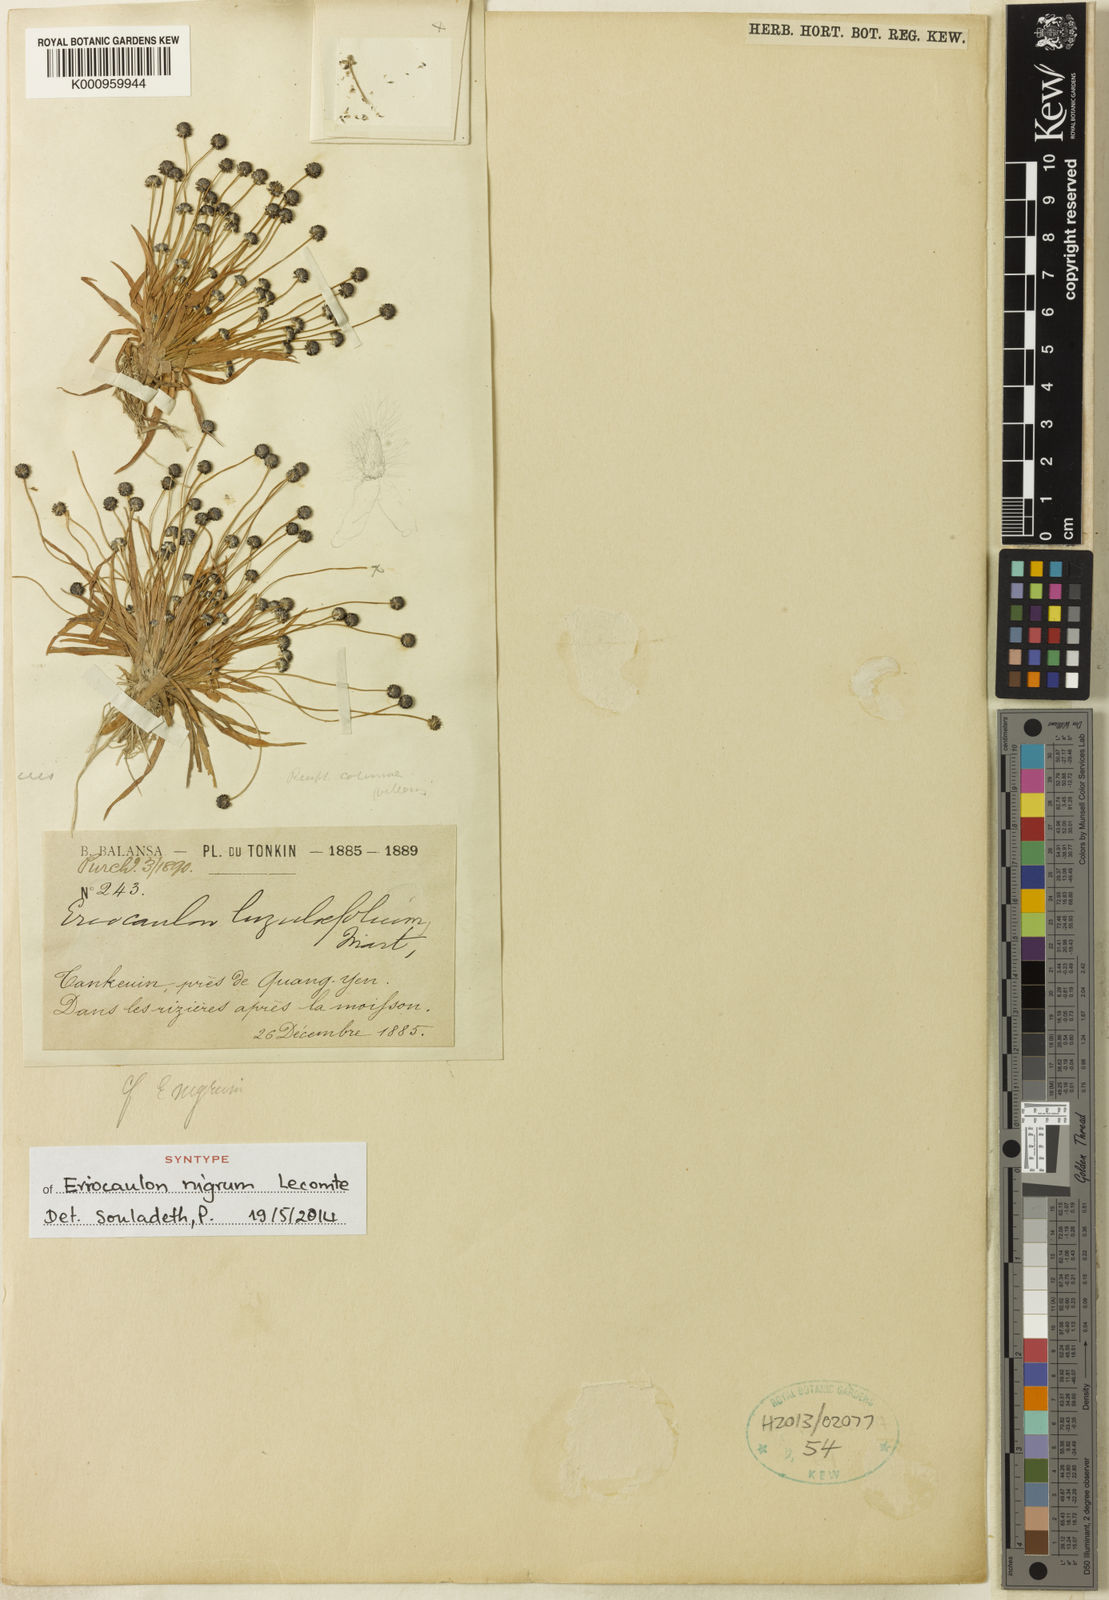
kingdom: Plantae
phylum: Tracheophyta
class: Liliopsida
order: Poales
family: Eriocaulaceae
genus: Eriocaulon
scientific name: Eriocaulon nigrum
